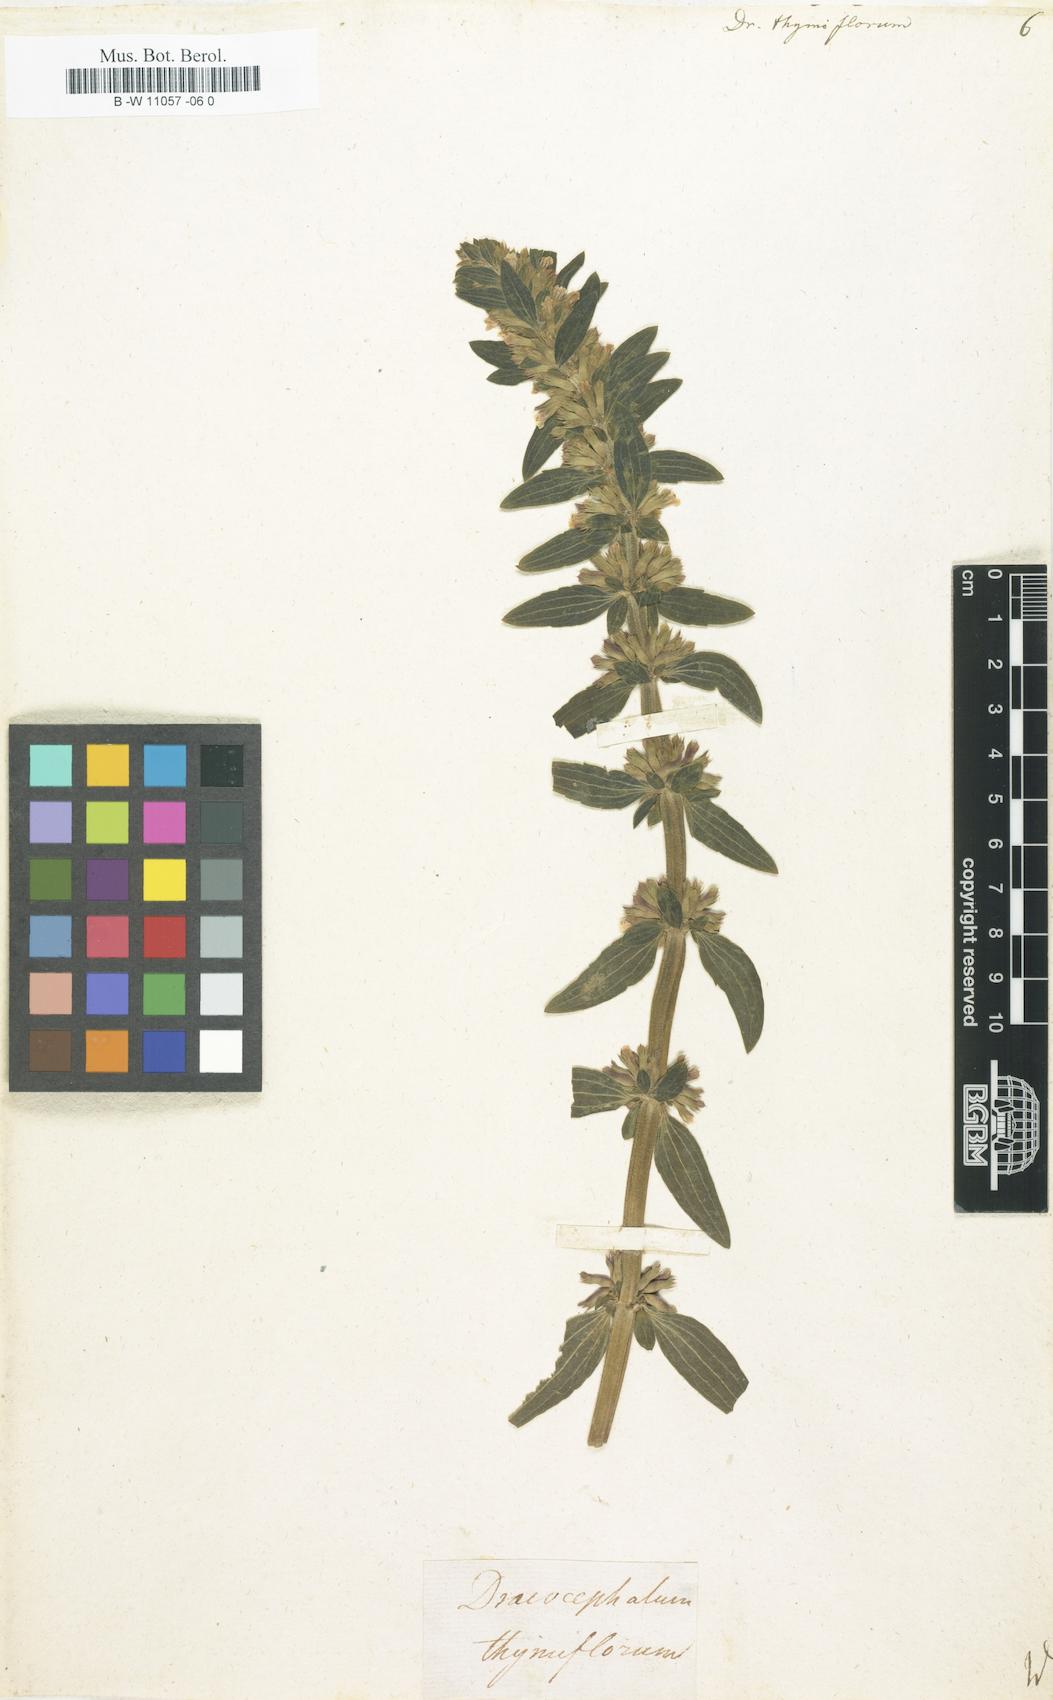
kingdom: Plantae
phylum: Tracheophyta
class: Magnoliopsida
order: Lamiales
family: Lamiaceae
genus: Dracocephalum
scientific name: Dracocephalum thymiflorum
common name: Thymeleaf dragonhead
